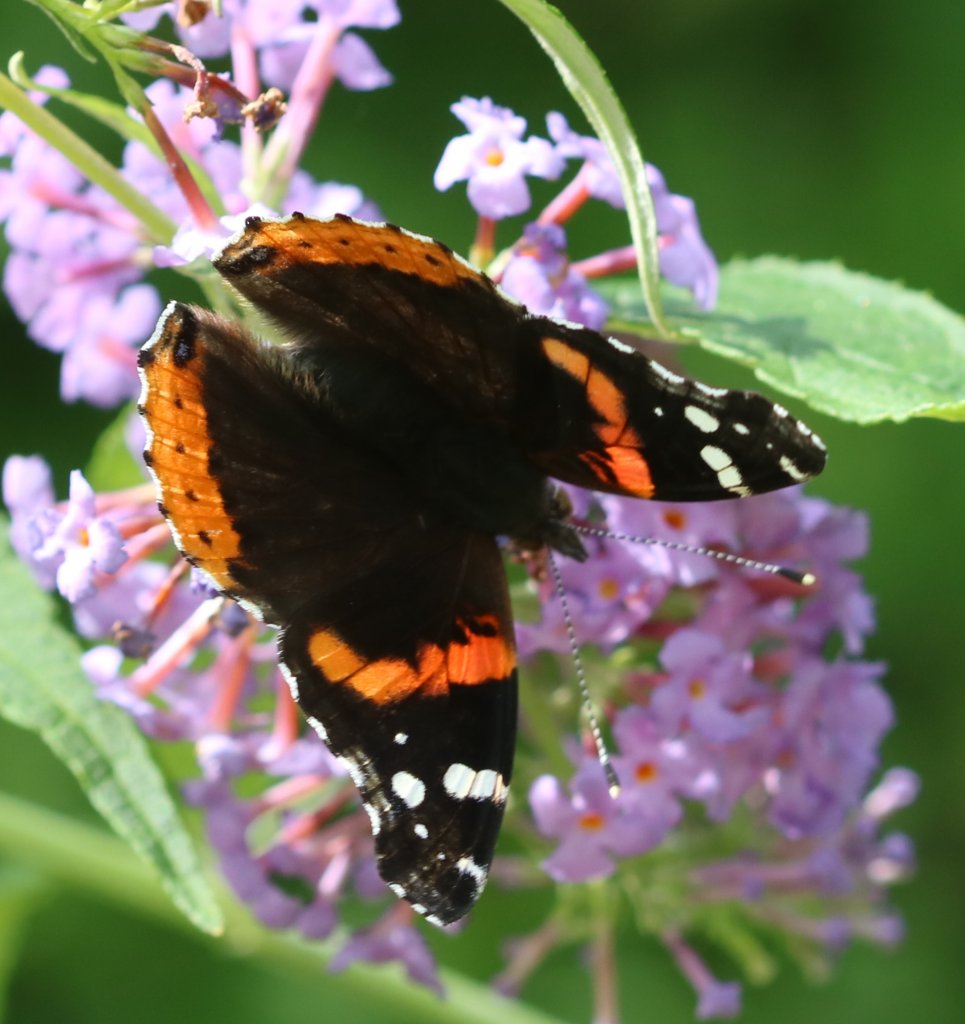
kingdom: Animalia
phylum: Arthropoda
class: Insecta
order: Lepidoptera
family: Nymphalidae
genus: Vanessa
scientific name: Vanessa atalanta
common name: Red Admiral
